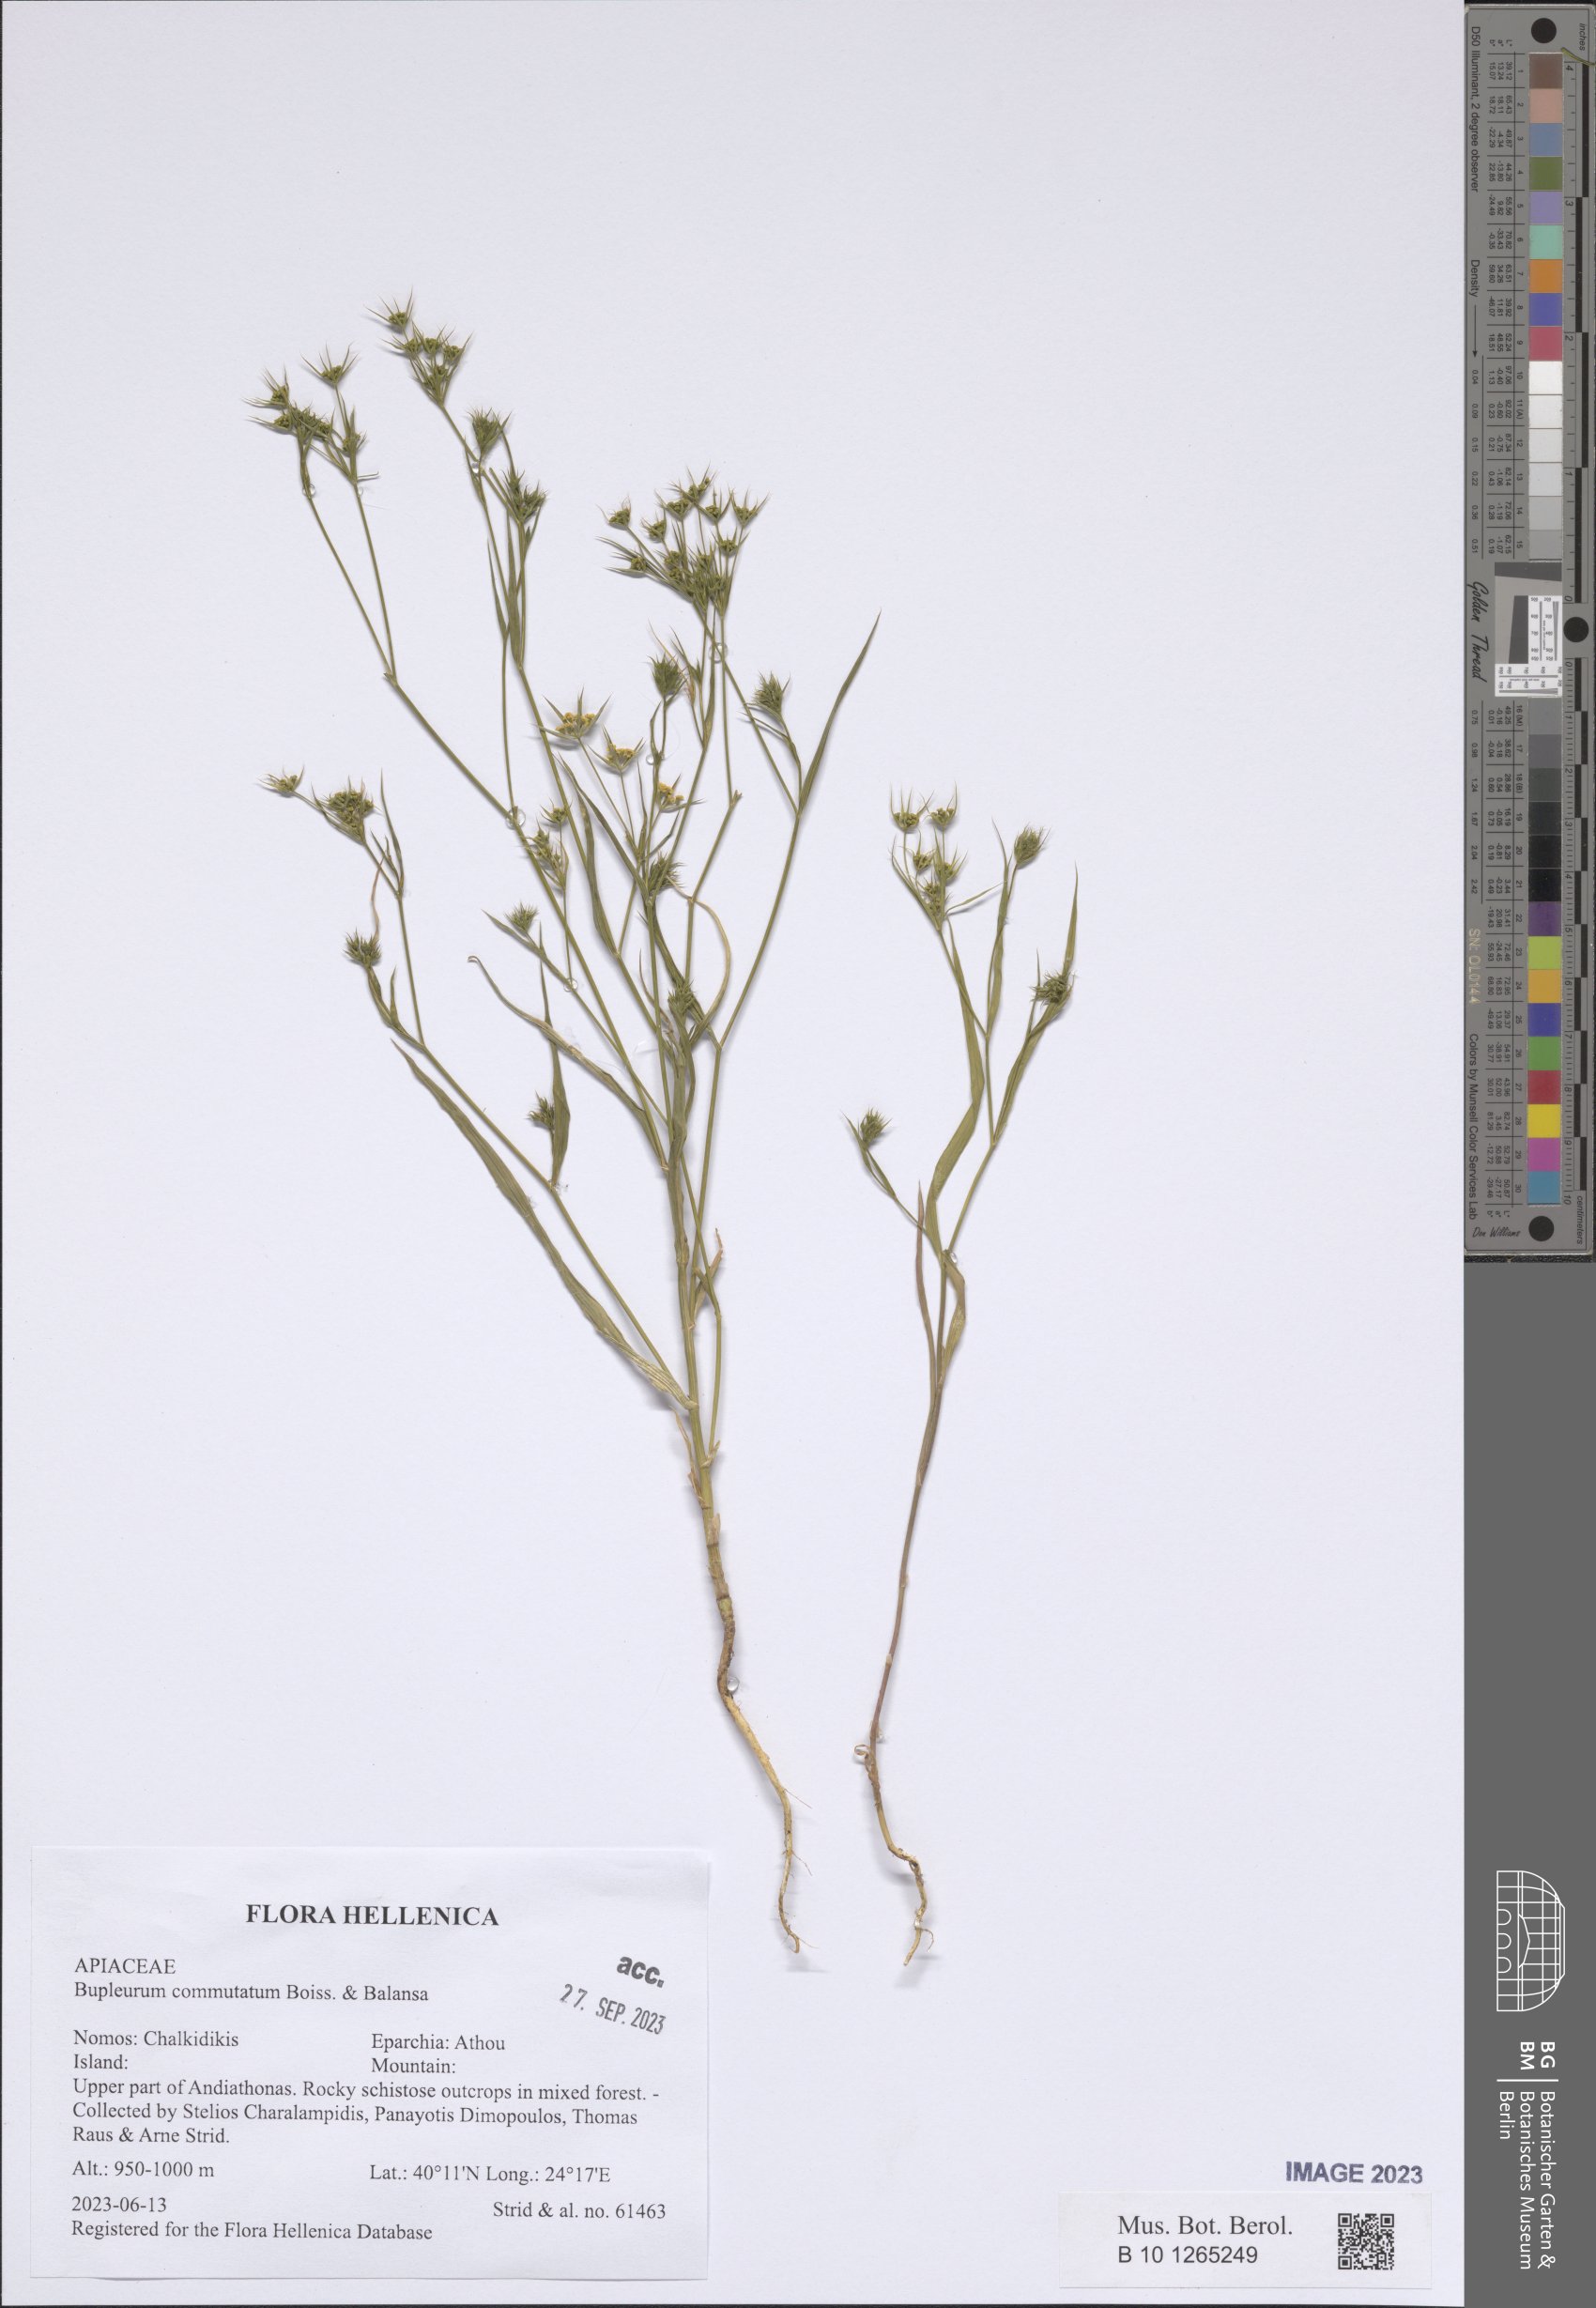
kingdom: Plantae
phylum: Tracheophyta
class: Magnoliopsida
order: Apiales
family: Apiaceae
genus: Bupleurum
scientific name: Bupleurum commutatum
